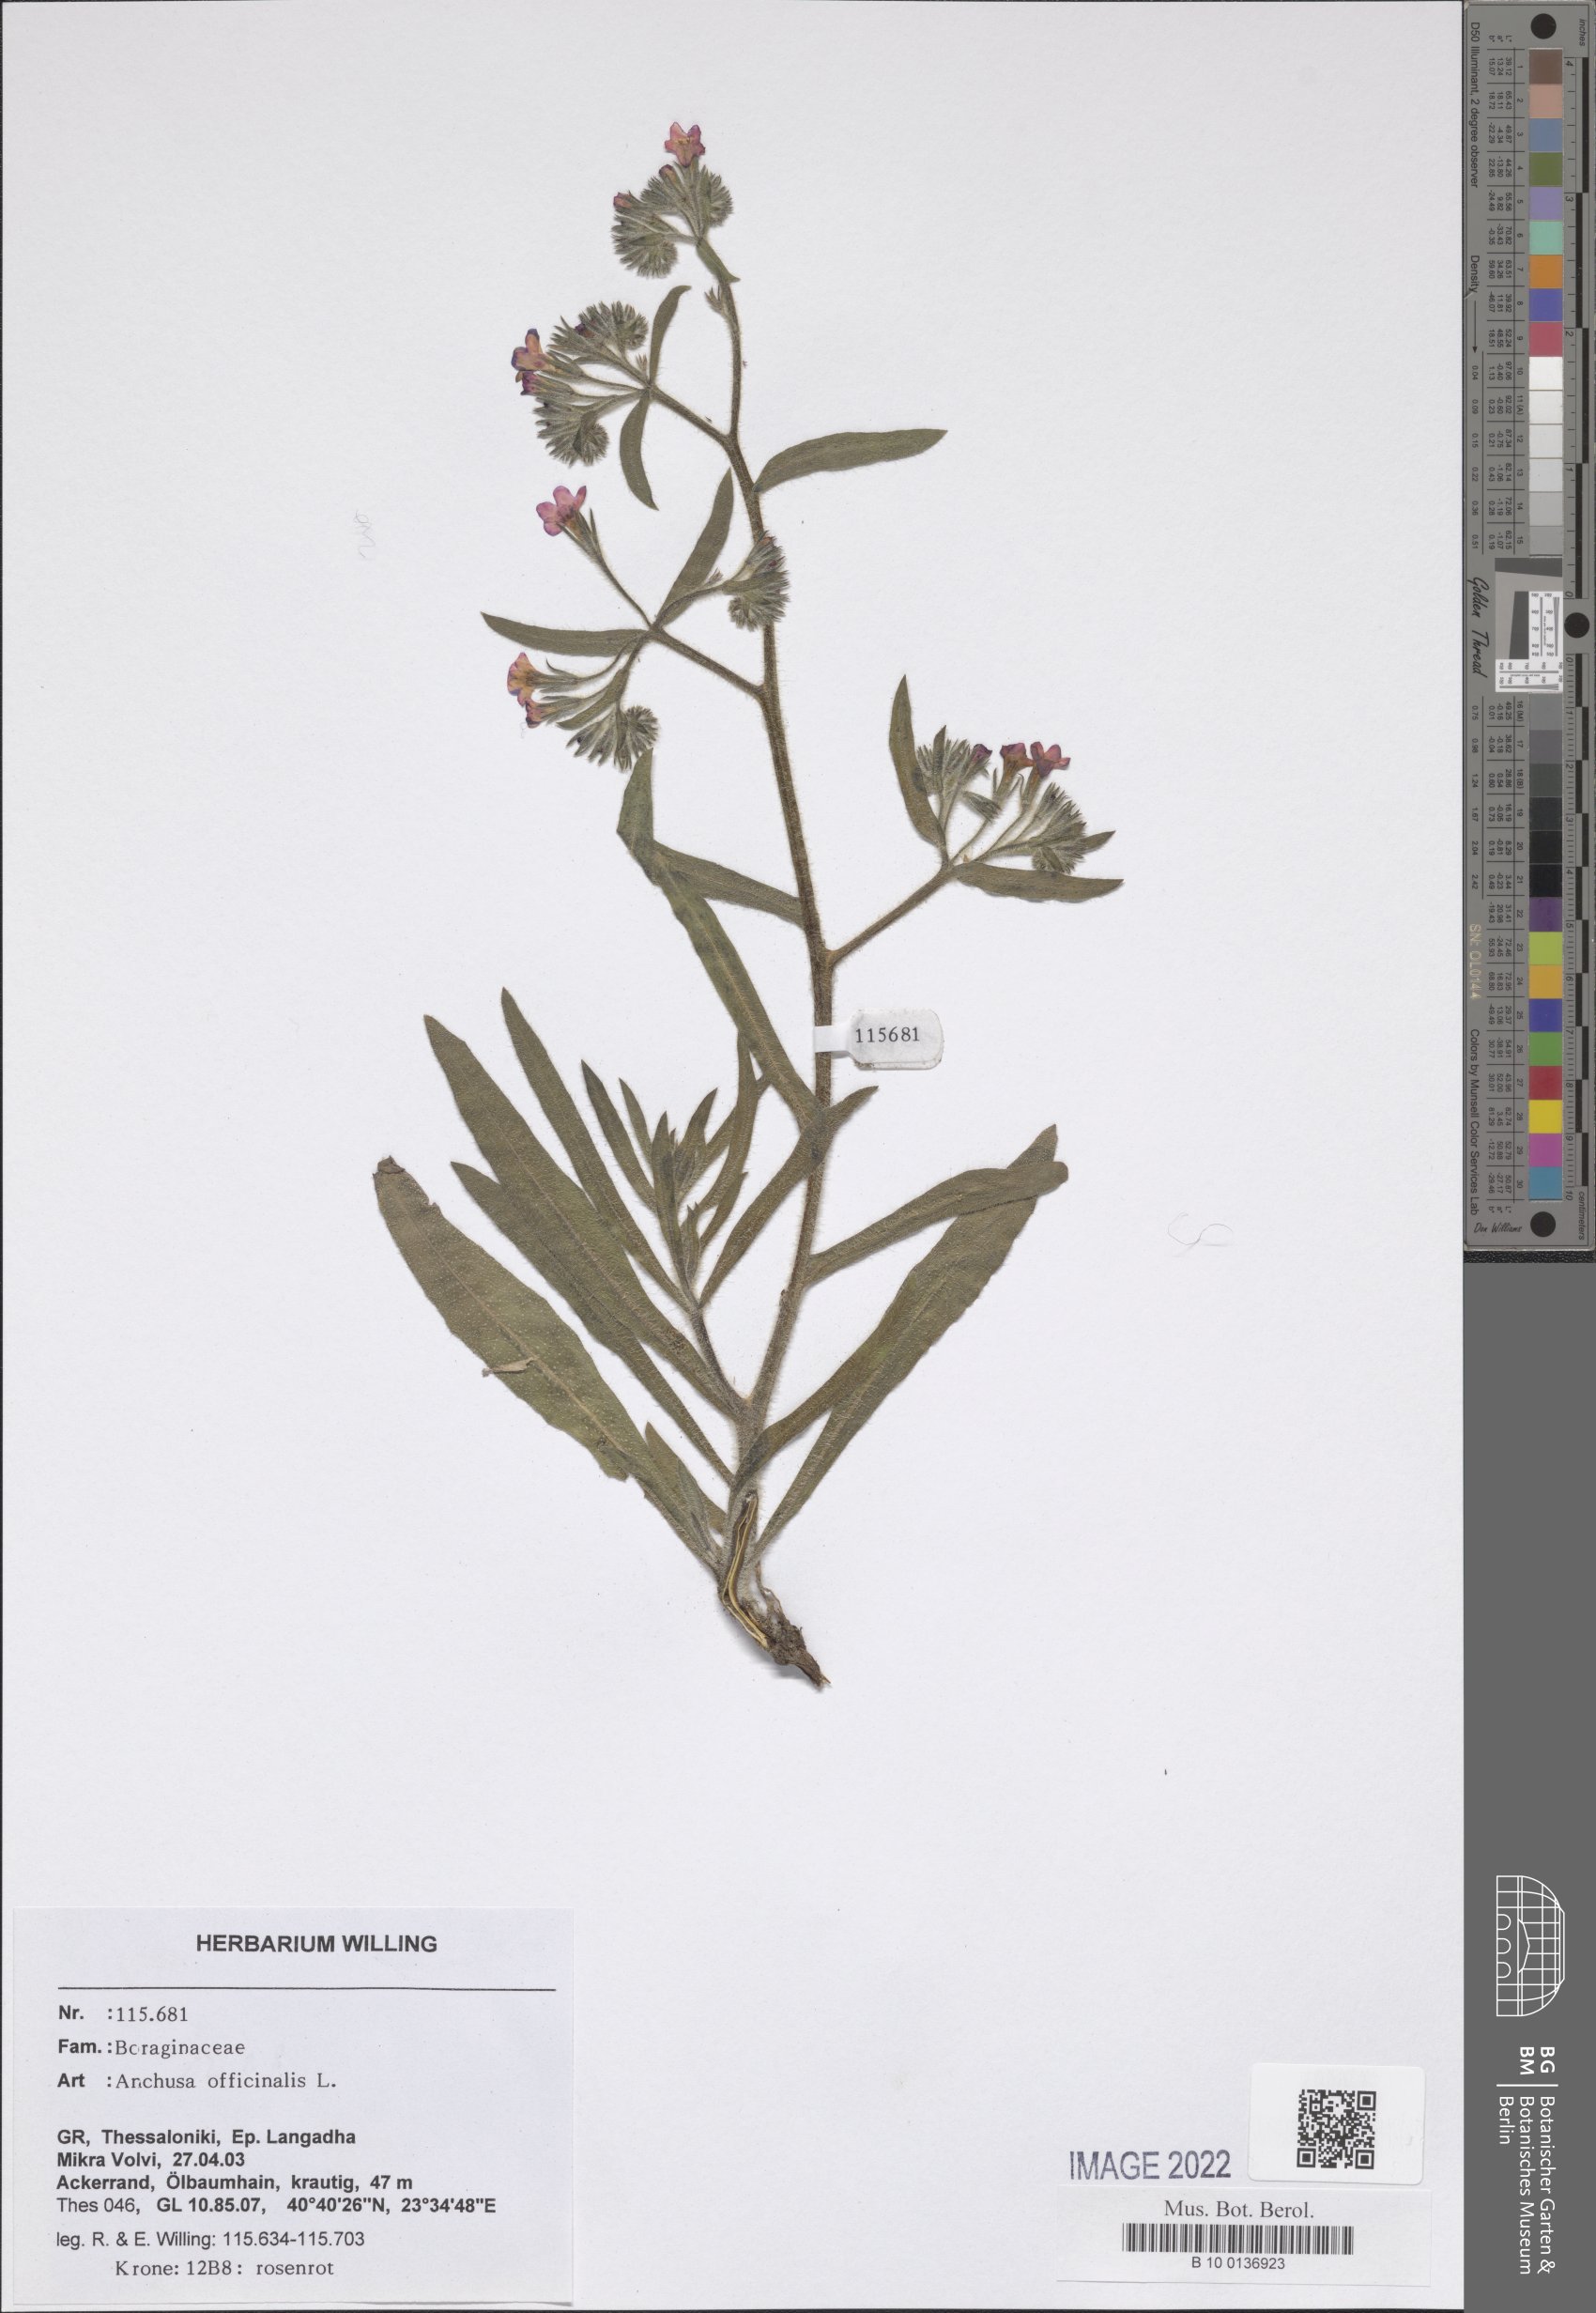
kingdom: Plantae
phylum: Tracheophyta
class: Magnoliopsida
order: Boraginales
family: Boraginaceae
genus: Anchusa
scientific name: Anchusa officinalis
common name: Alkanet
